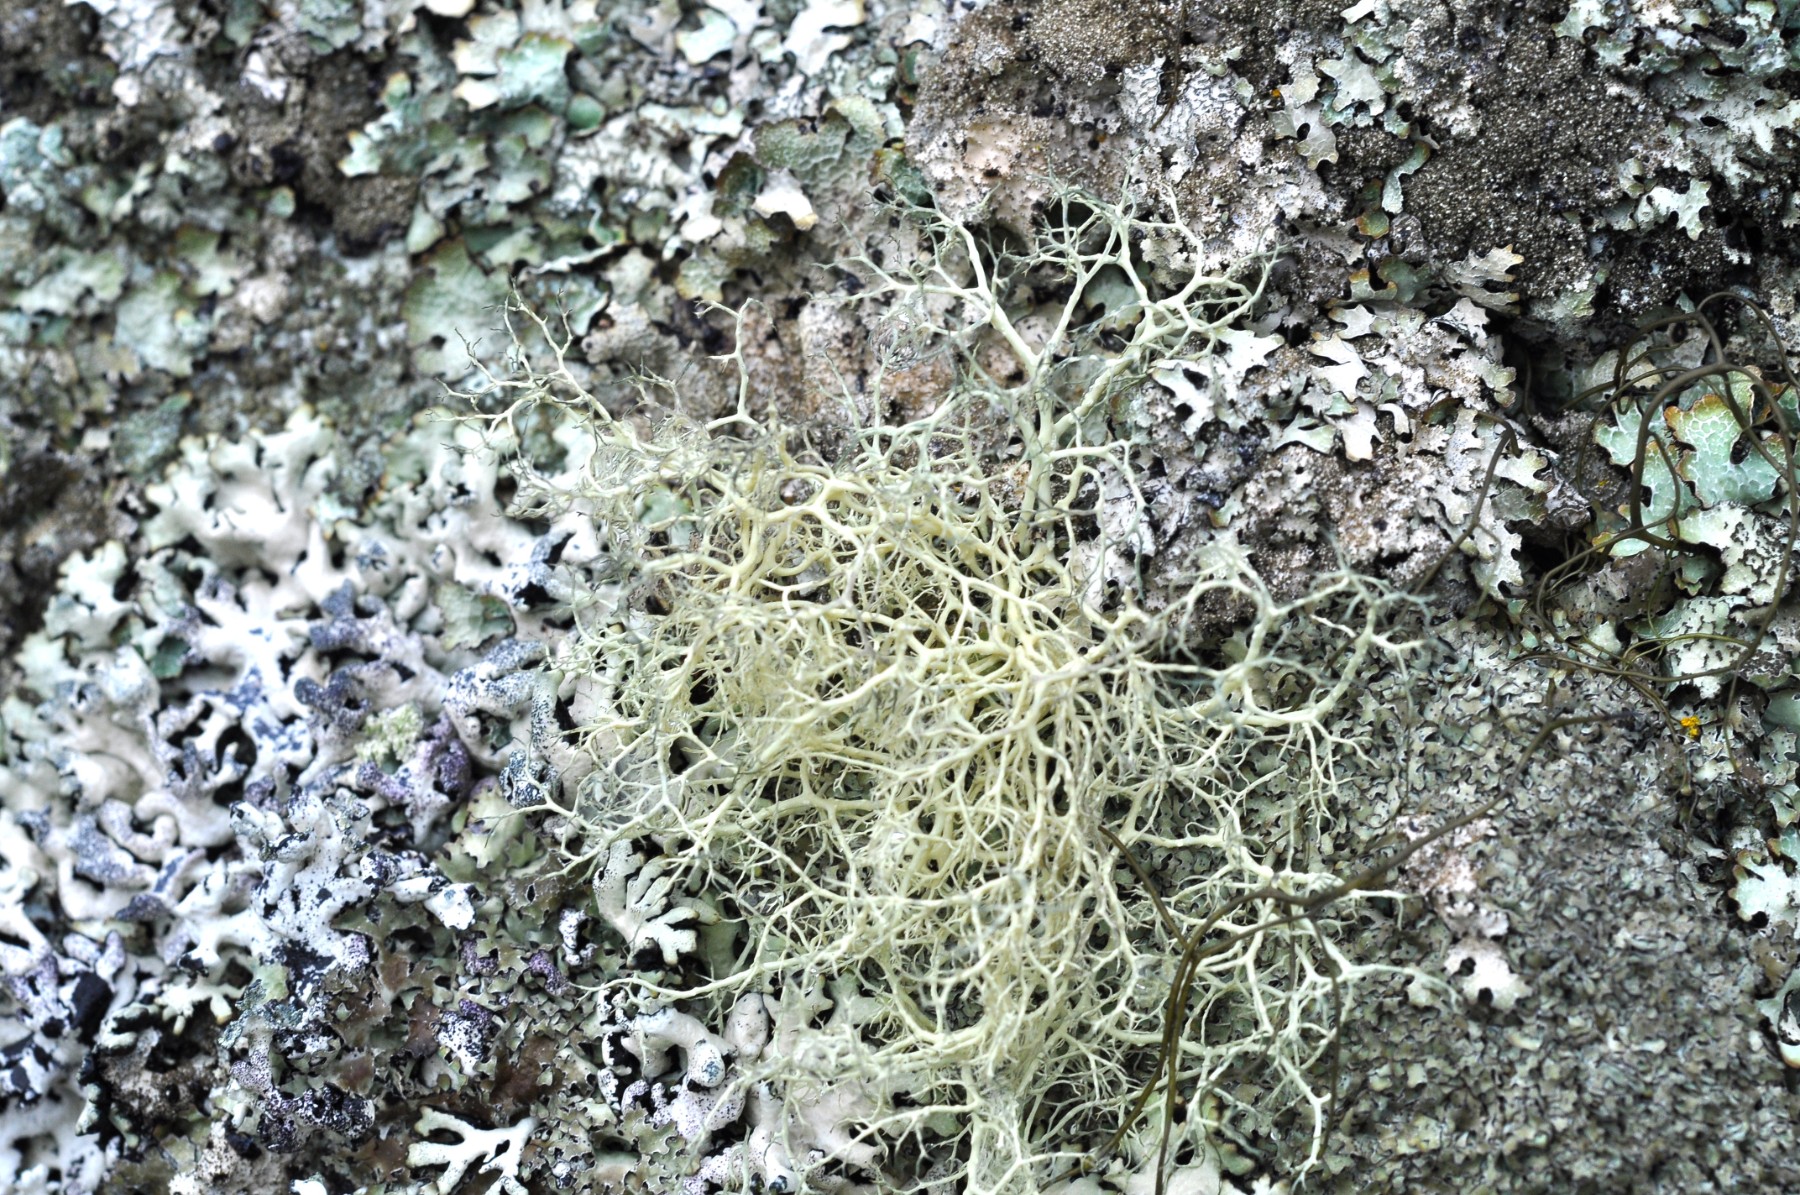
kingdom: Fungi
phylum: Ascomycota
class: Lecanoromycetes
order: Lecanorales
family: Parmeliaceae
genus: Alectoria
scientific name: Alectoria ochroleuca
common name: Alpine sulphur-tresses
